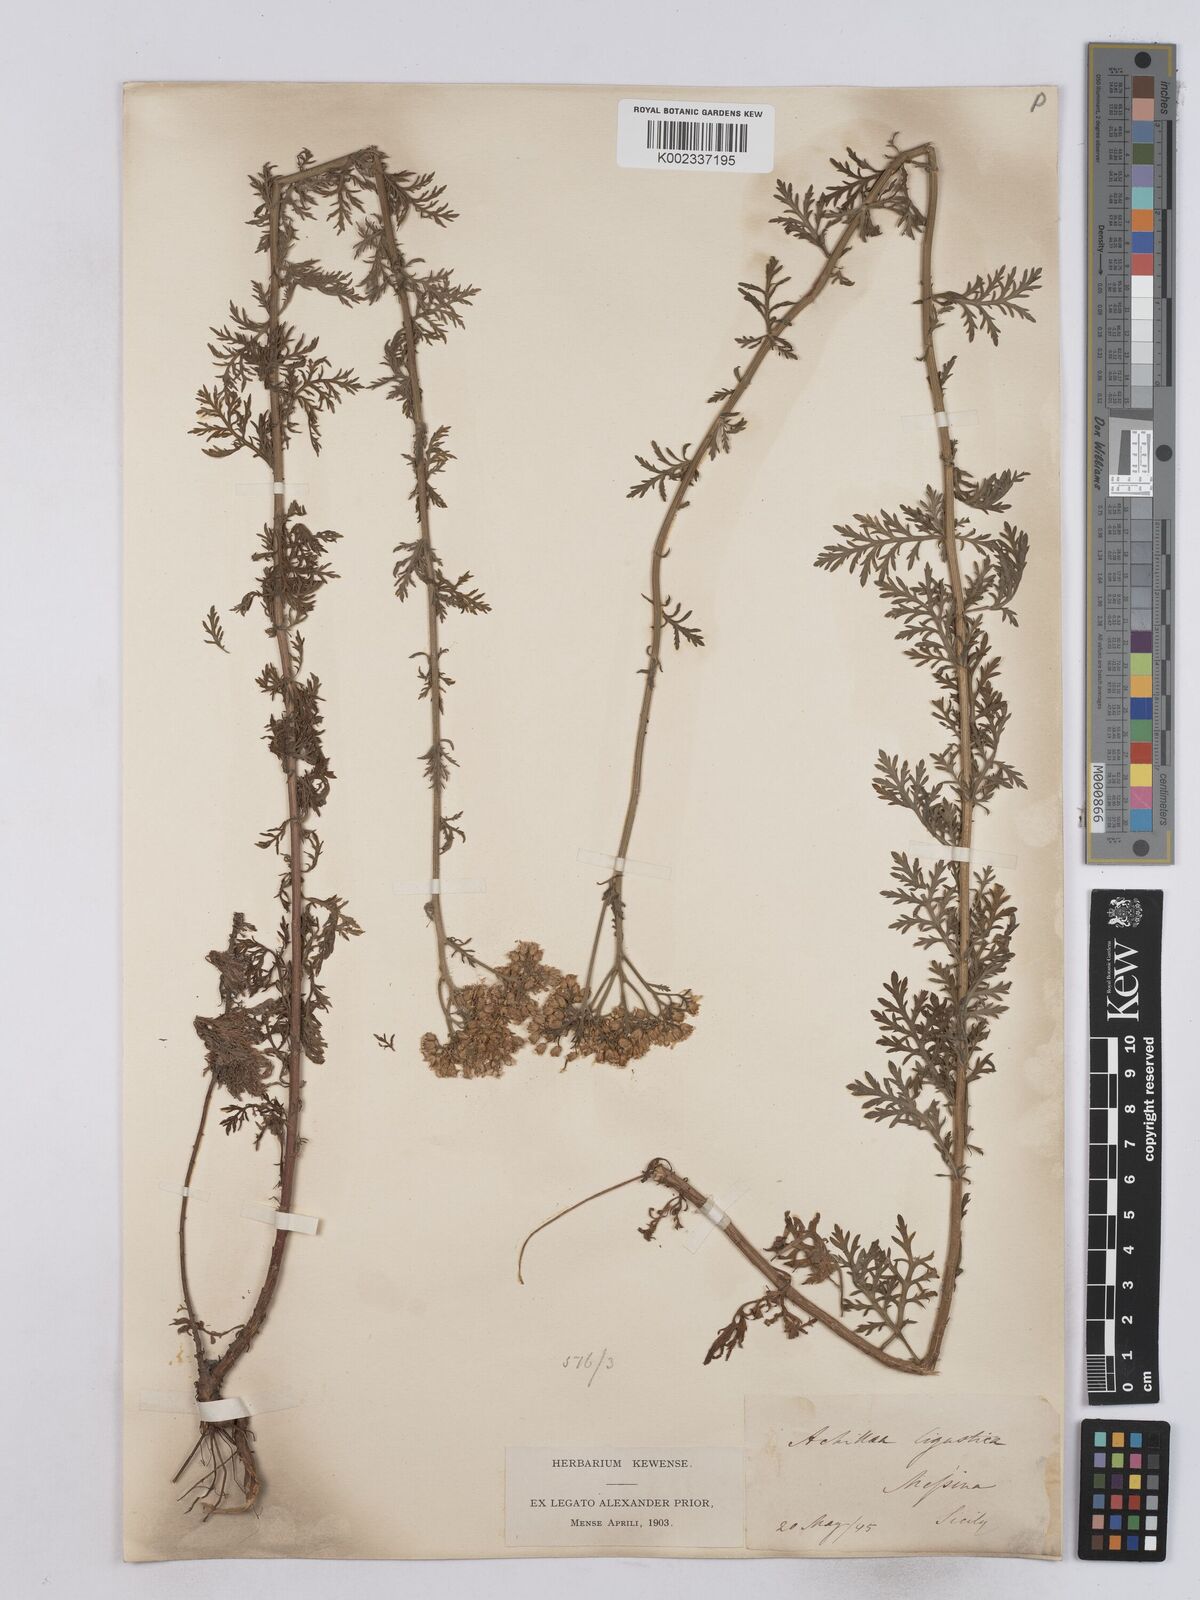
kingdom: Plantae
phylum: Tracheophyta
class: Magnoliopsida
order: Asterales
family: Asteraceae
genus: Achillea
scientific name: Achillea ligustica
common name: Southern yarrow
